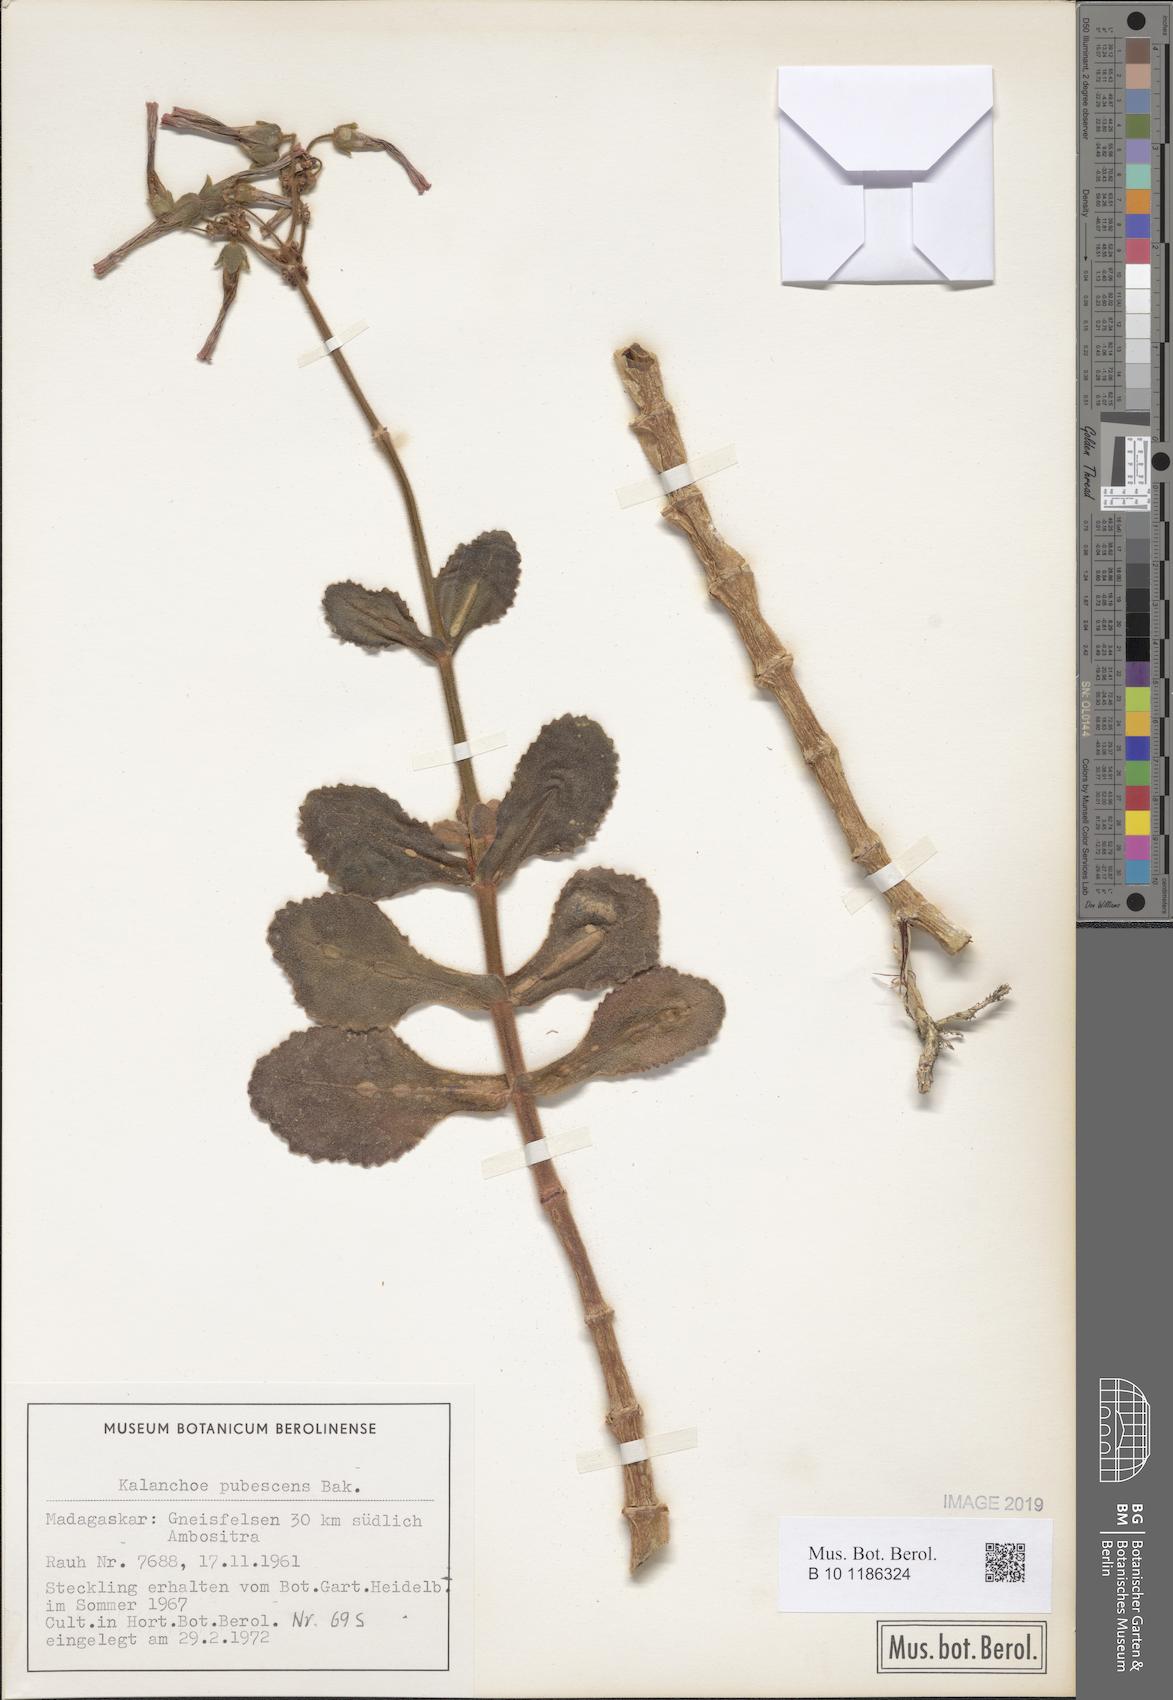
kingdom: Plantae
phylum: Tracheophyta
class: Magnoliopsida
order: Saxifragales
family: Crassulaceae
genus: Kalanchoe
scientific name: Kalanchoe pubescens
